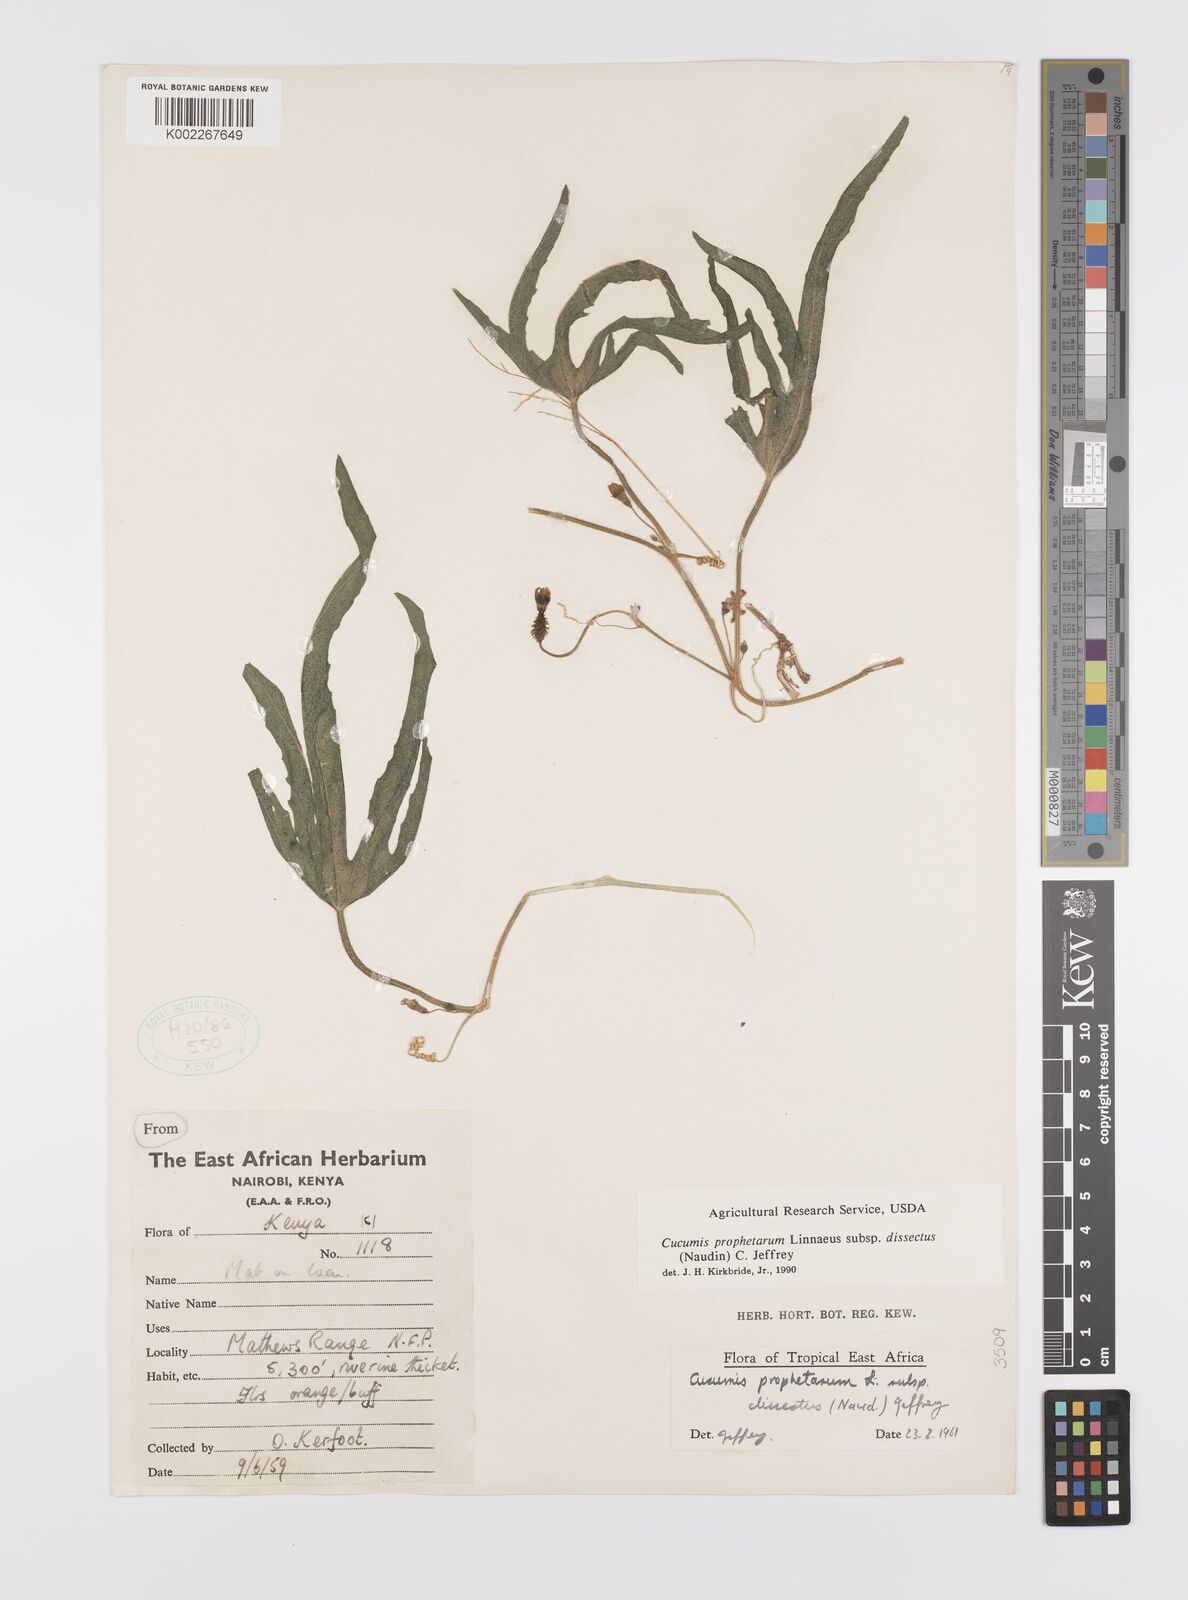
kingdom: Plantae
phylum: Tracheophyta
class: Magnoliopsida
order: Cucurbitales
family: Cucurbitaceae
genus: Cucumis
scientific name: Cucumis insignis
